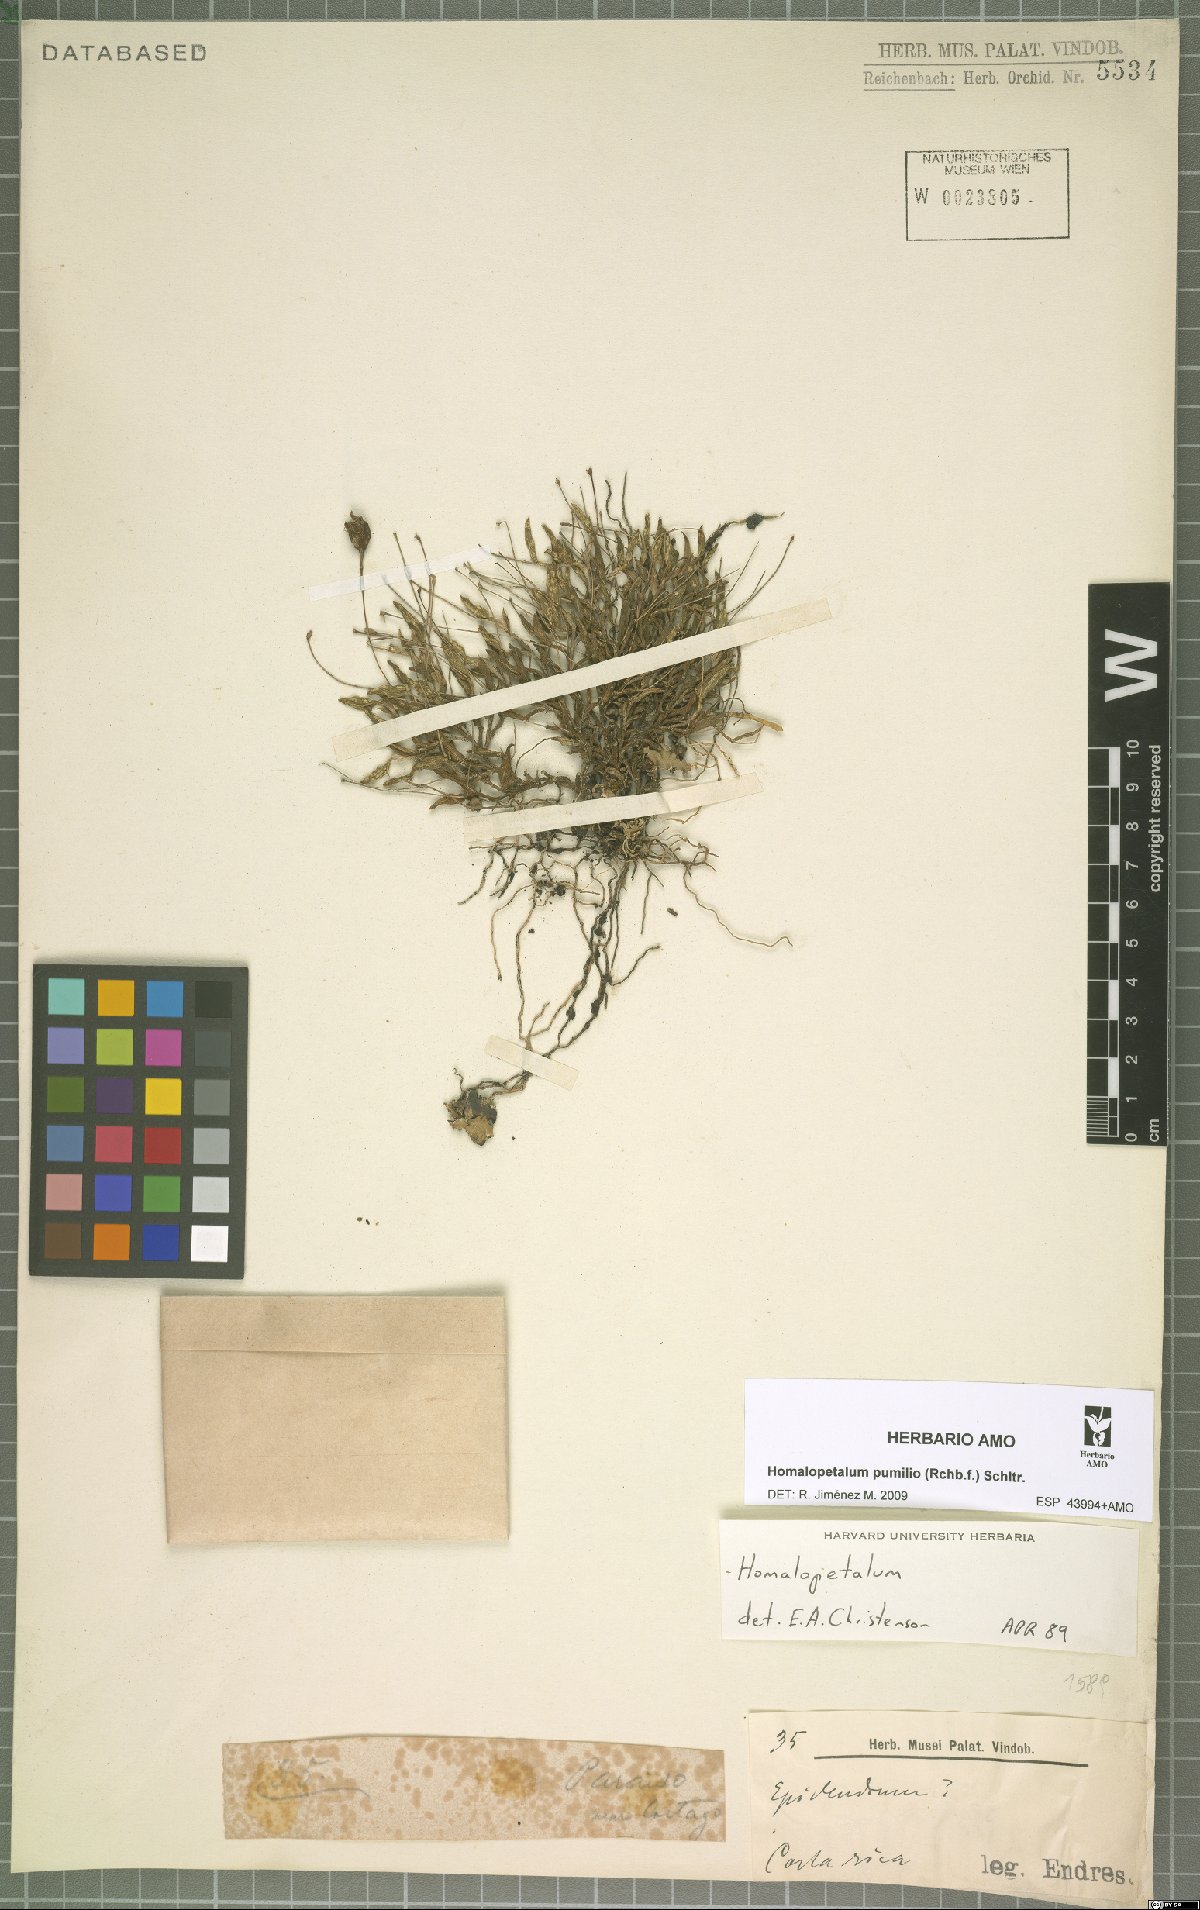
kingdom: Plantae
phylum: Tracheophyta
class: Liliopsida
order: Asparagales
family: Orchidaceae
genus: Homalopetalum
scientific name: Homalopetalum pumilio
